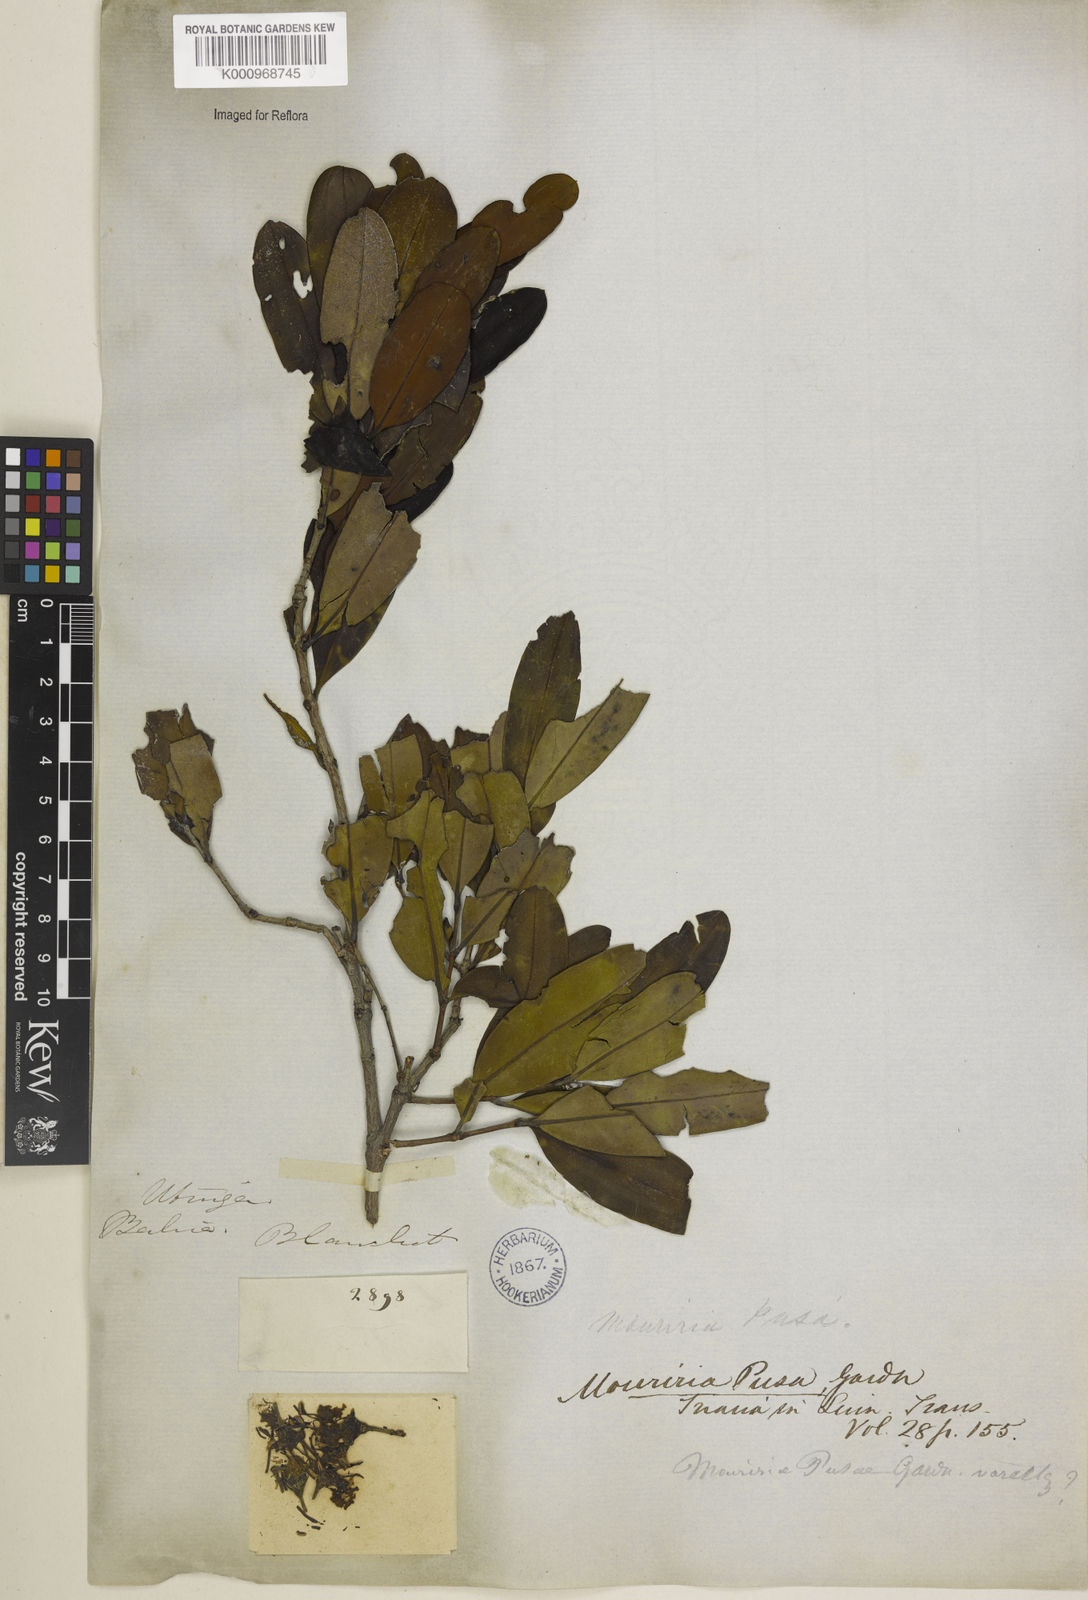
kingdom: Plantae
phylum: Tracheophyta
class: Magnoliopsida
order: Myrtales
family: Melastomataceae
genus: Mouriri
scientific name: Mouriri pusa
